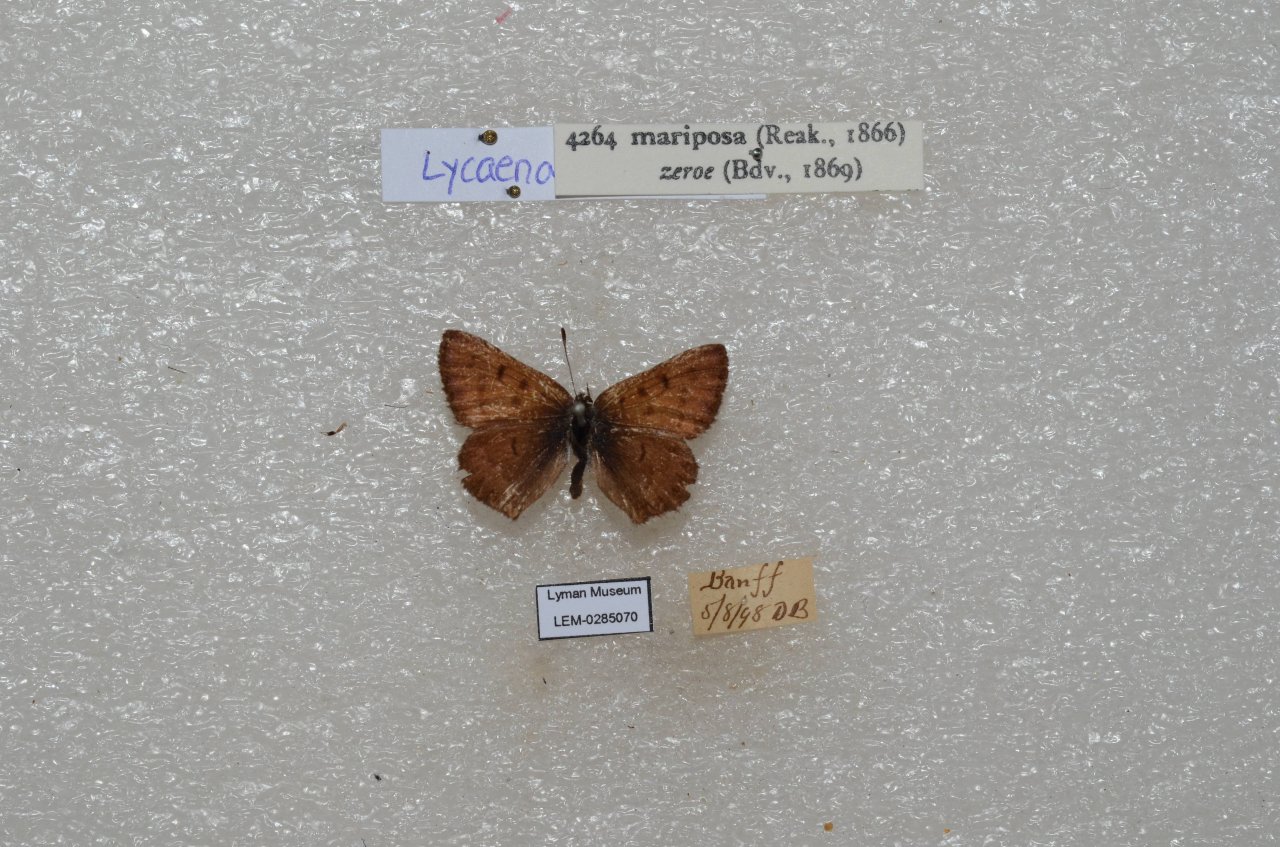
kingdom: Animalia
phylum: Arthropoda
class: Insecta
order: Lepidoptera
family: Lycaenidae
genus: Lycaena
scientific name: Lycaena mariposa
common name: Mariposa Copper
